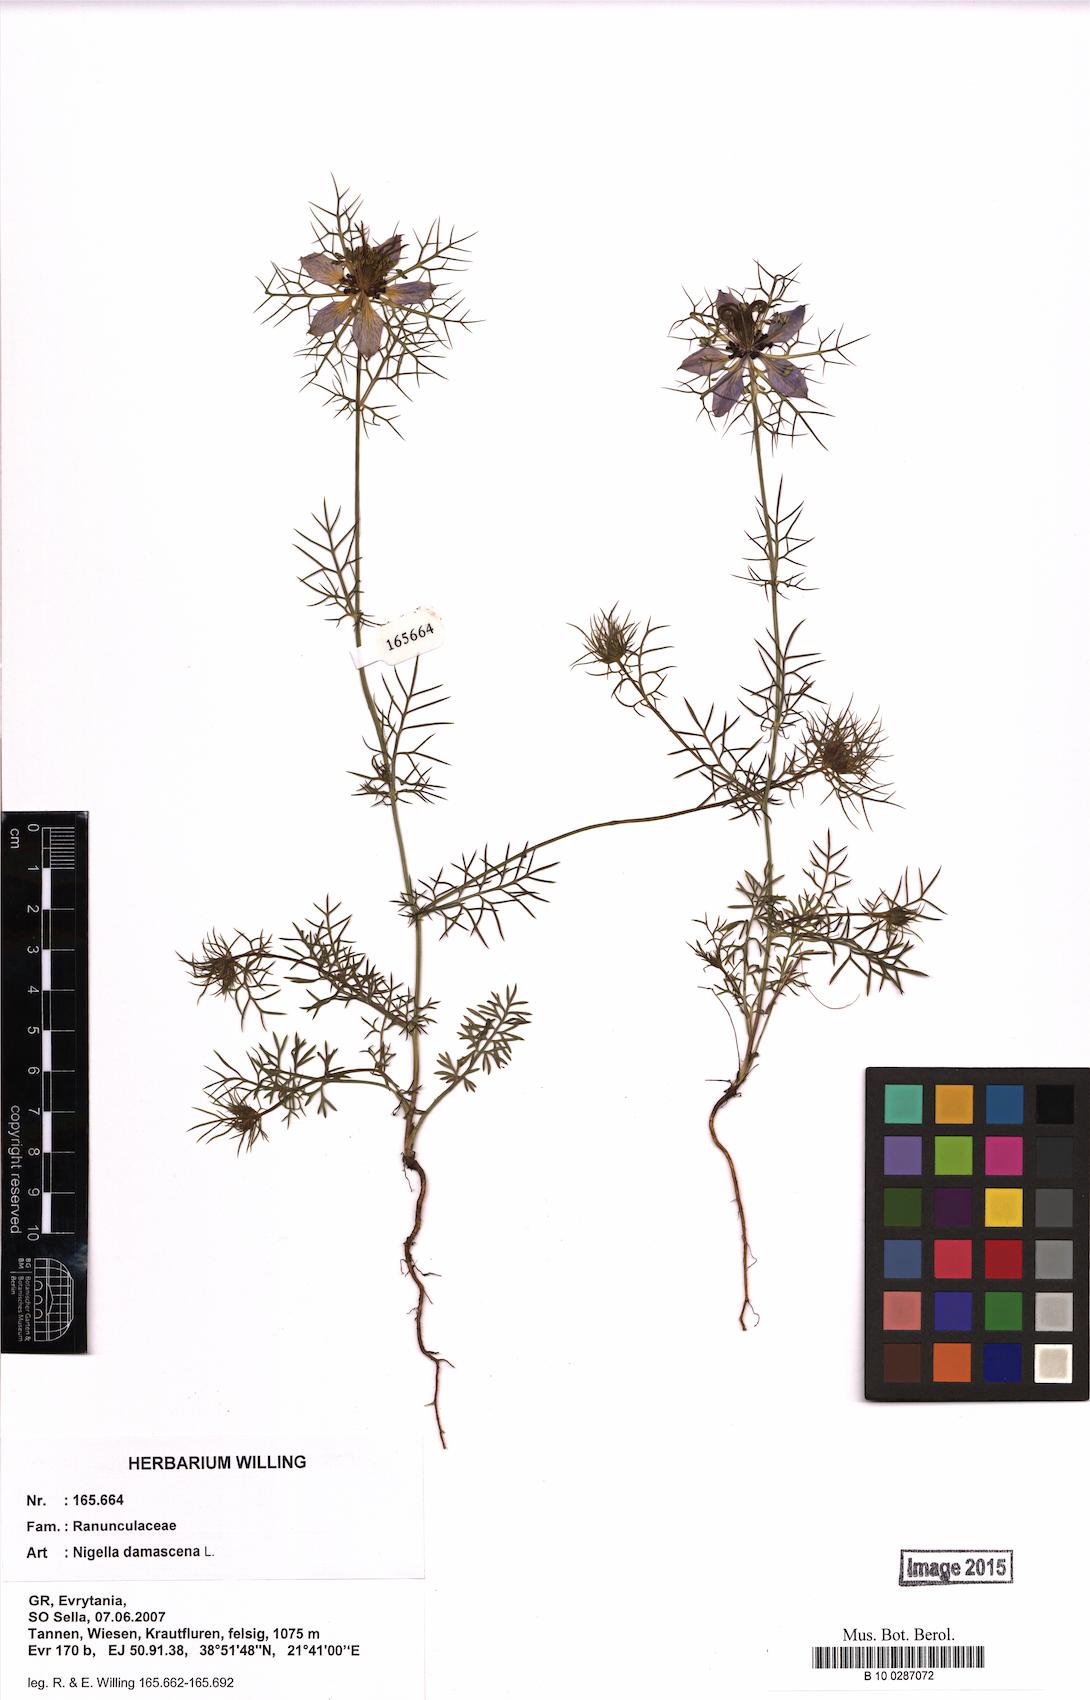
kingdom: Plantae
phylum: Tracheophyta
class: Magnoliopsida
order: Ranunculales
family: Ranunculaceae
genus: Nigella
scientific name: Nigella damascena
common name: Love-in-a-mist
